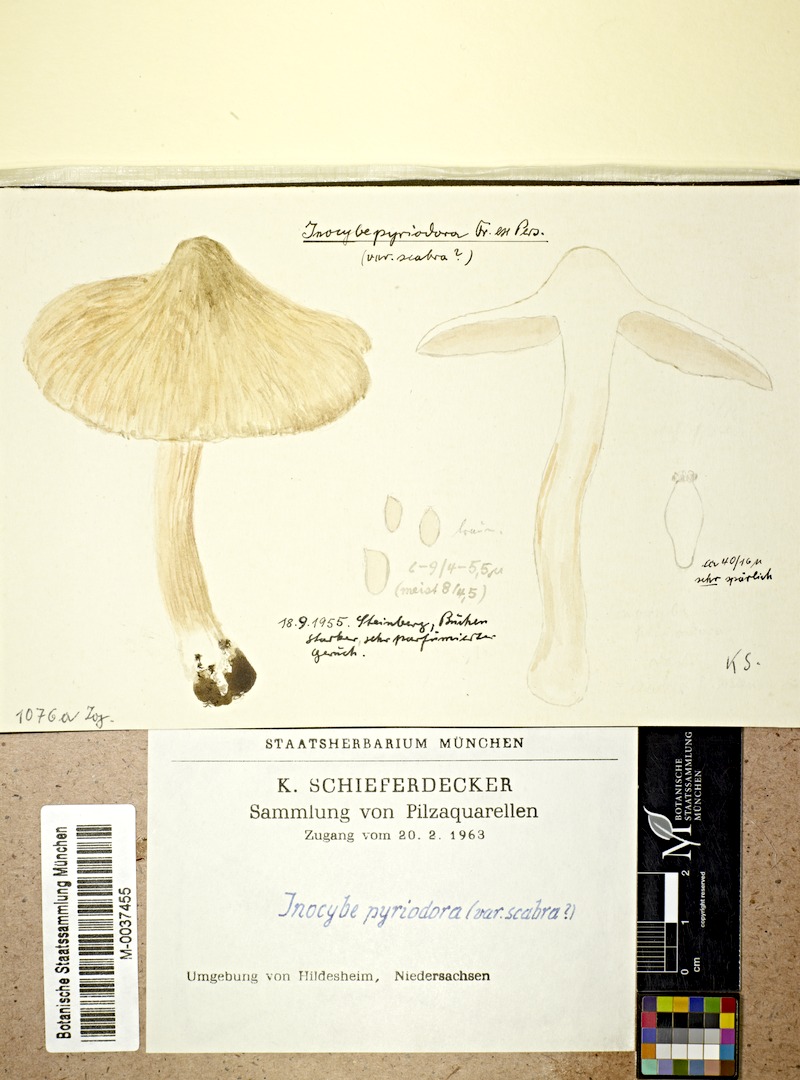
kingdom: Fungi
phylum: Basidiomycota
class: Agaricomycetes
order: Agaricales
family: Inocybaceae
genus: Inocybe
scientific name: Inocybe fraudans
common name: Pear fibrecap
